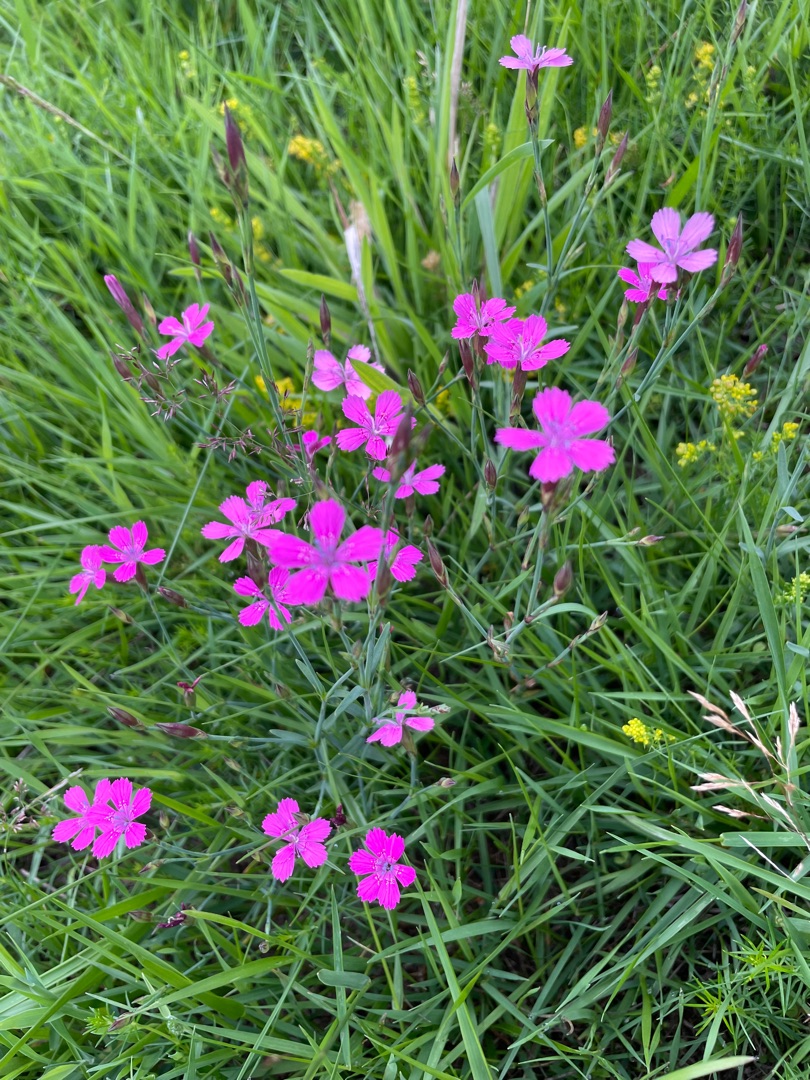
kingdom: Plantae
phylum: Tracheophyta
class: Magnoliopsida
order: Caryophyllales
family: Caryophyllaceae
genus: Dianthus
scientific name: Dianthus deltoides
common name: Bakke-nellike
